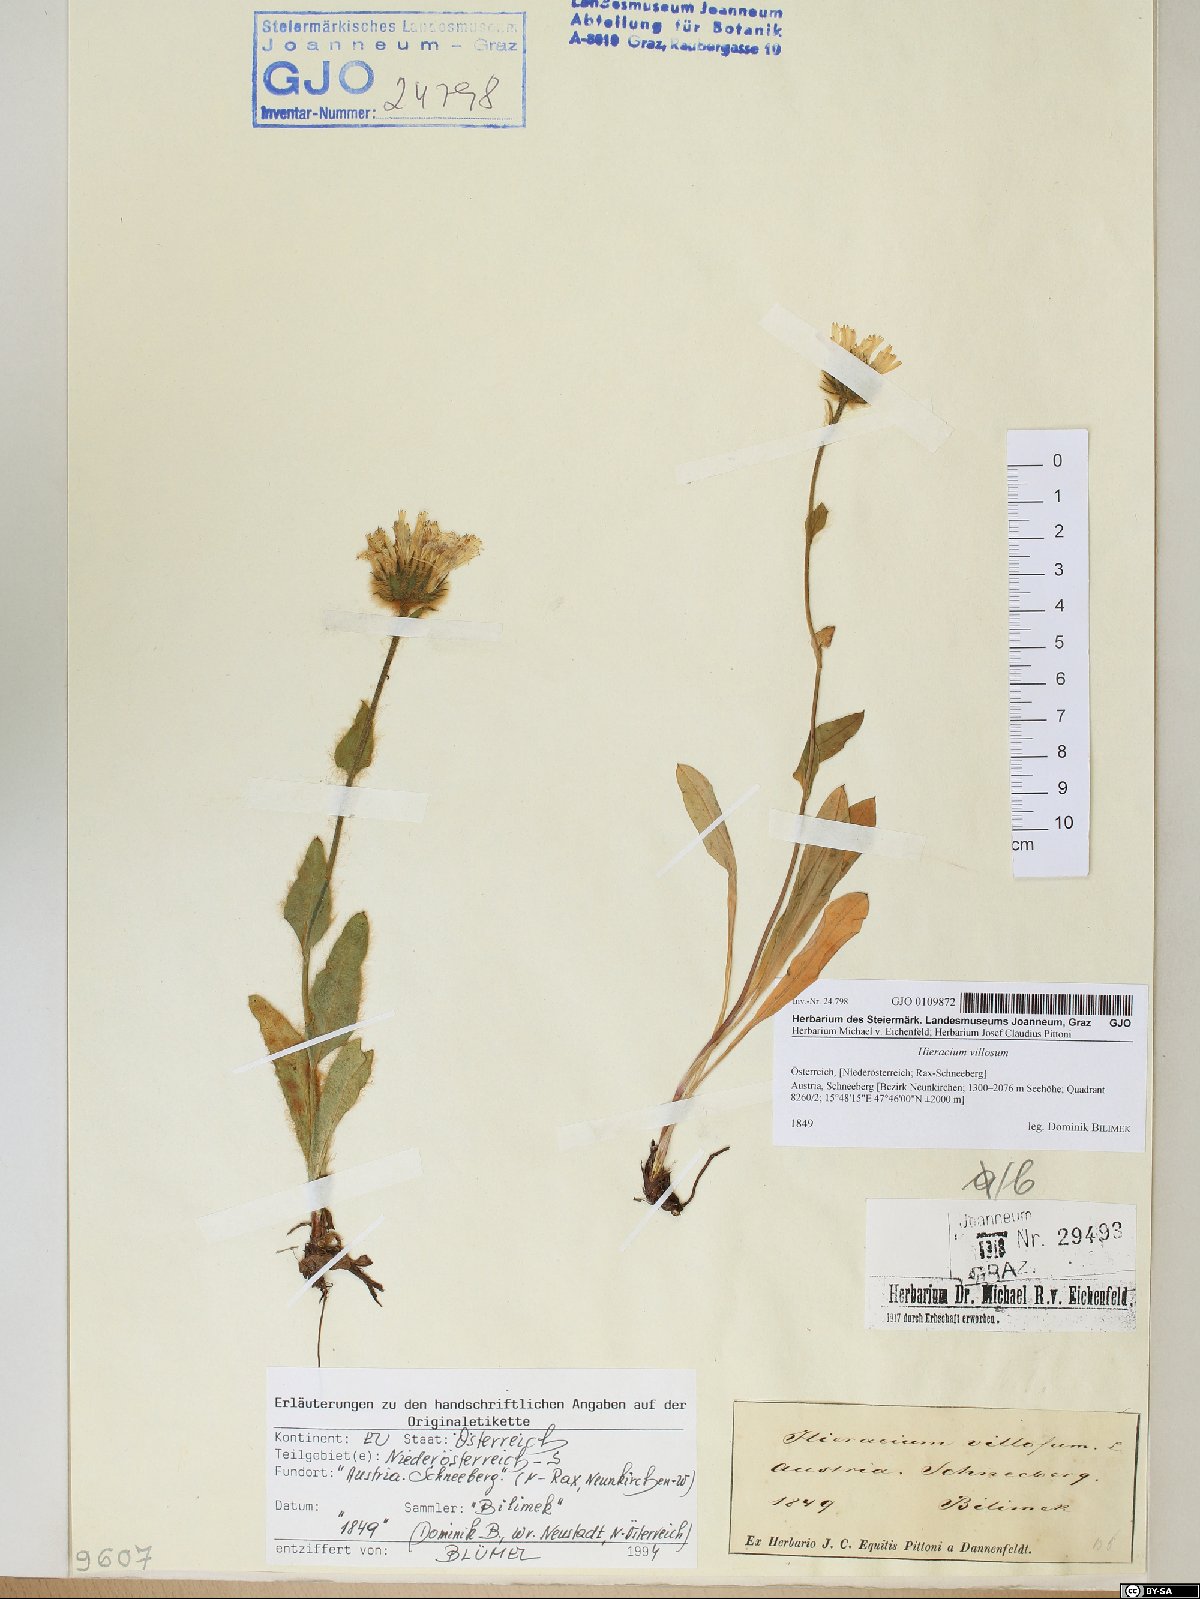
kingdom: Plantae
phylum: Tracheophyta
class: Magnoliopsida
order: Asterales
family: Asteraceae
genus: Hieracium
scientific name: Hieracium villosum
